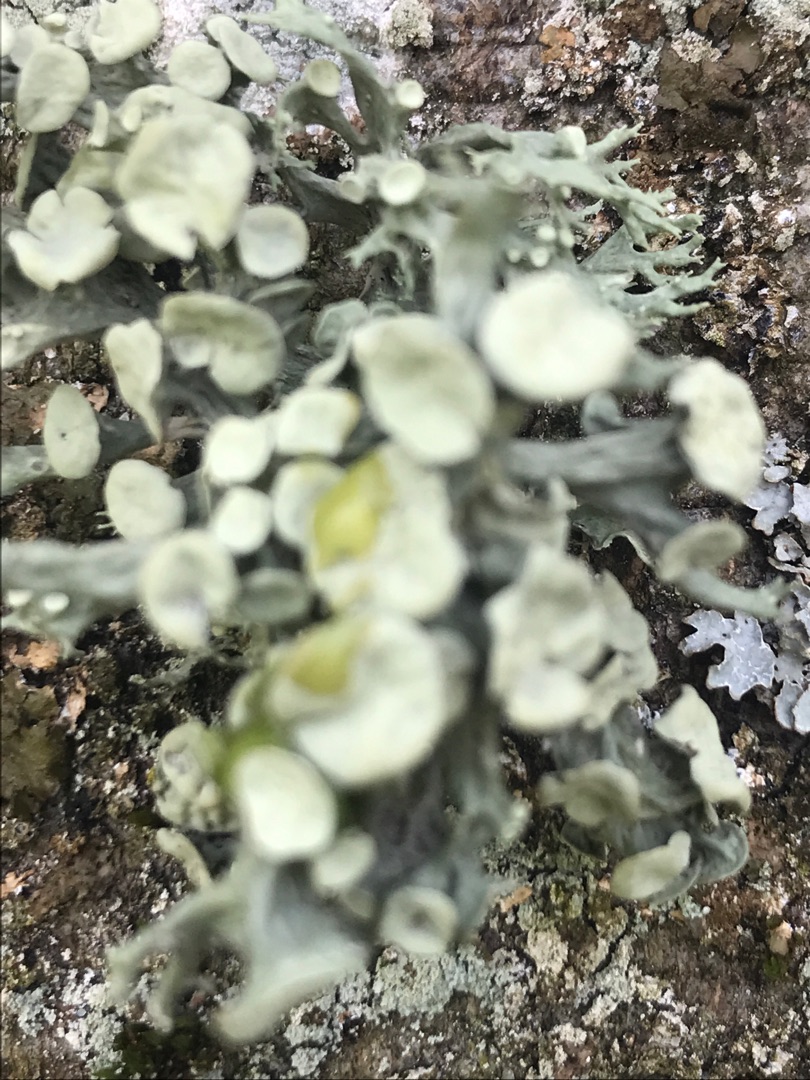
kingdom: Fungi
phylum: Ascomycota
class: Lecanoromycetes
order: Lecanorales
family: Ramalinaceae
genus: Ramalina
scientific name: Ramalina fastigiata
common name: Tue-grenlav
